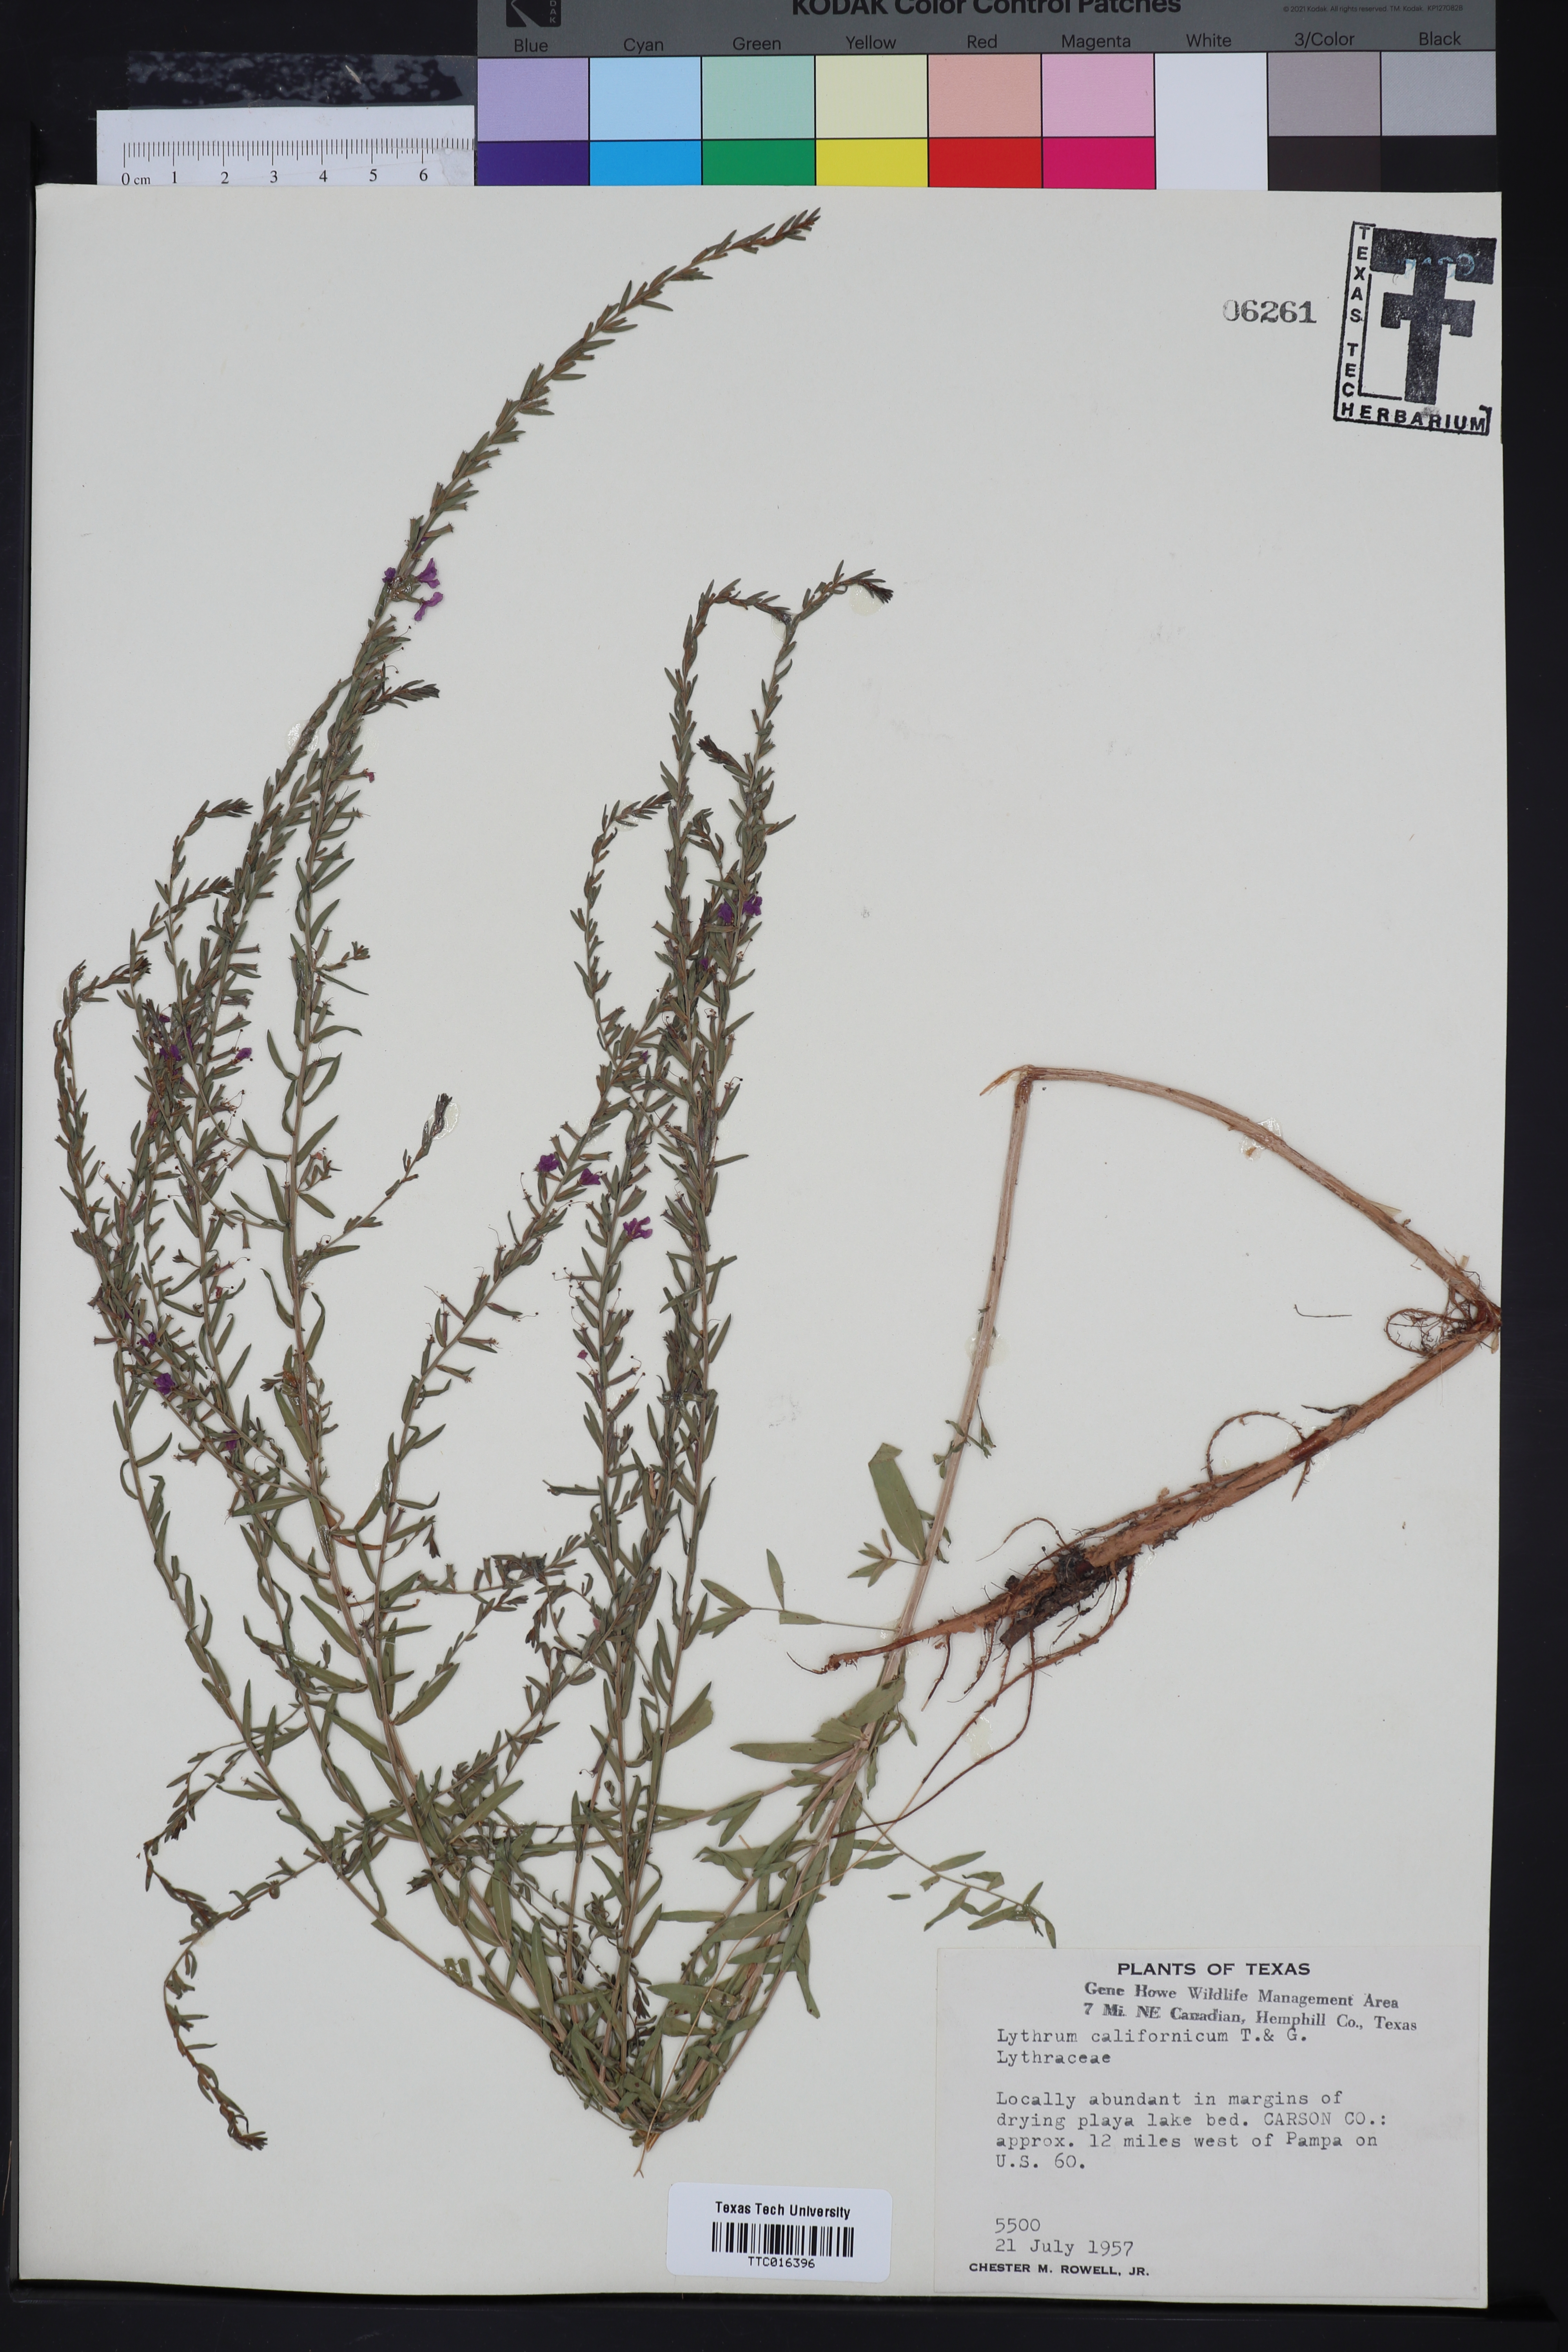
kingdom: Plantae
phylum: Tracheophyta
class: Magnoliopsida
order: Myrtales
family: Lythraceae
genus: Lythrum
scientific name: Lythrum californicum
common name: California loosestrife
